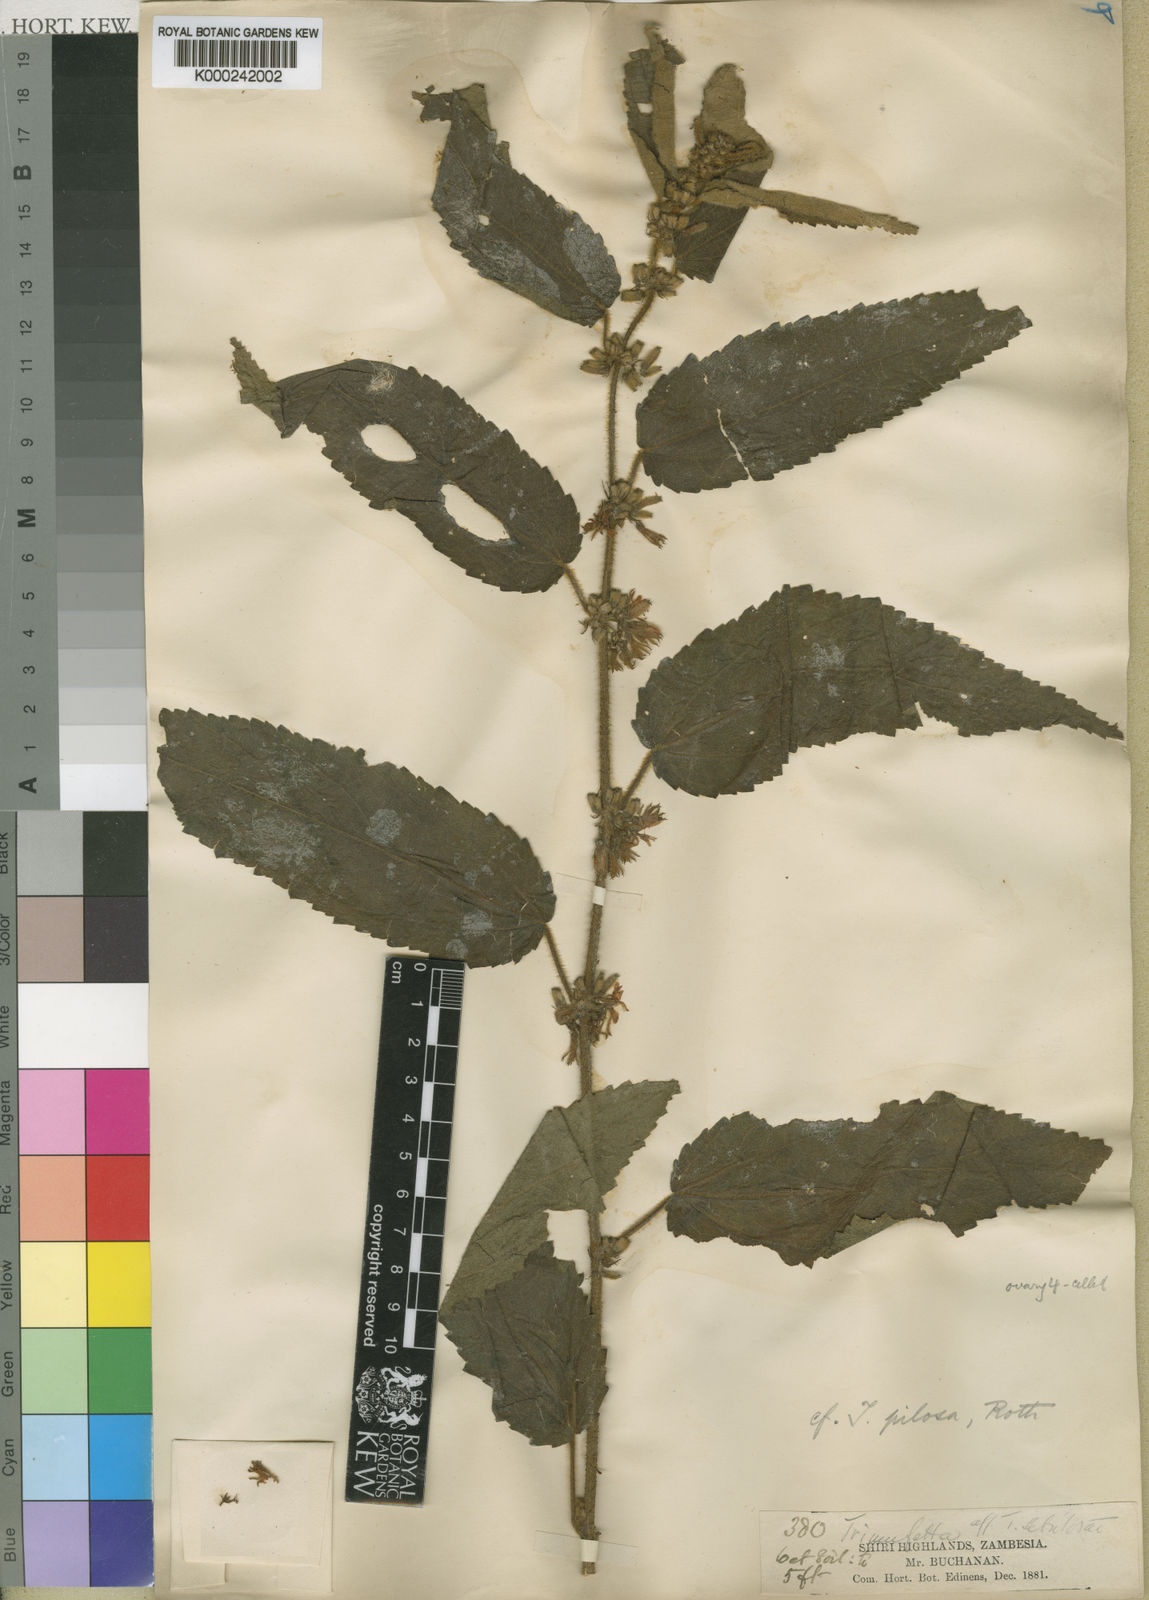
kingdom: Plantae
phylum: Tracheophyta
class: Magnoliopsida
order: Malvales
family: Malvaceae
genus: Triumfetta
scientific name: Triumfetta pilosa
